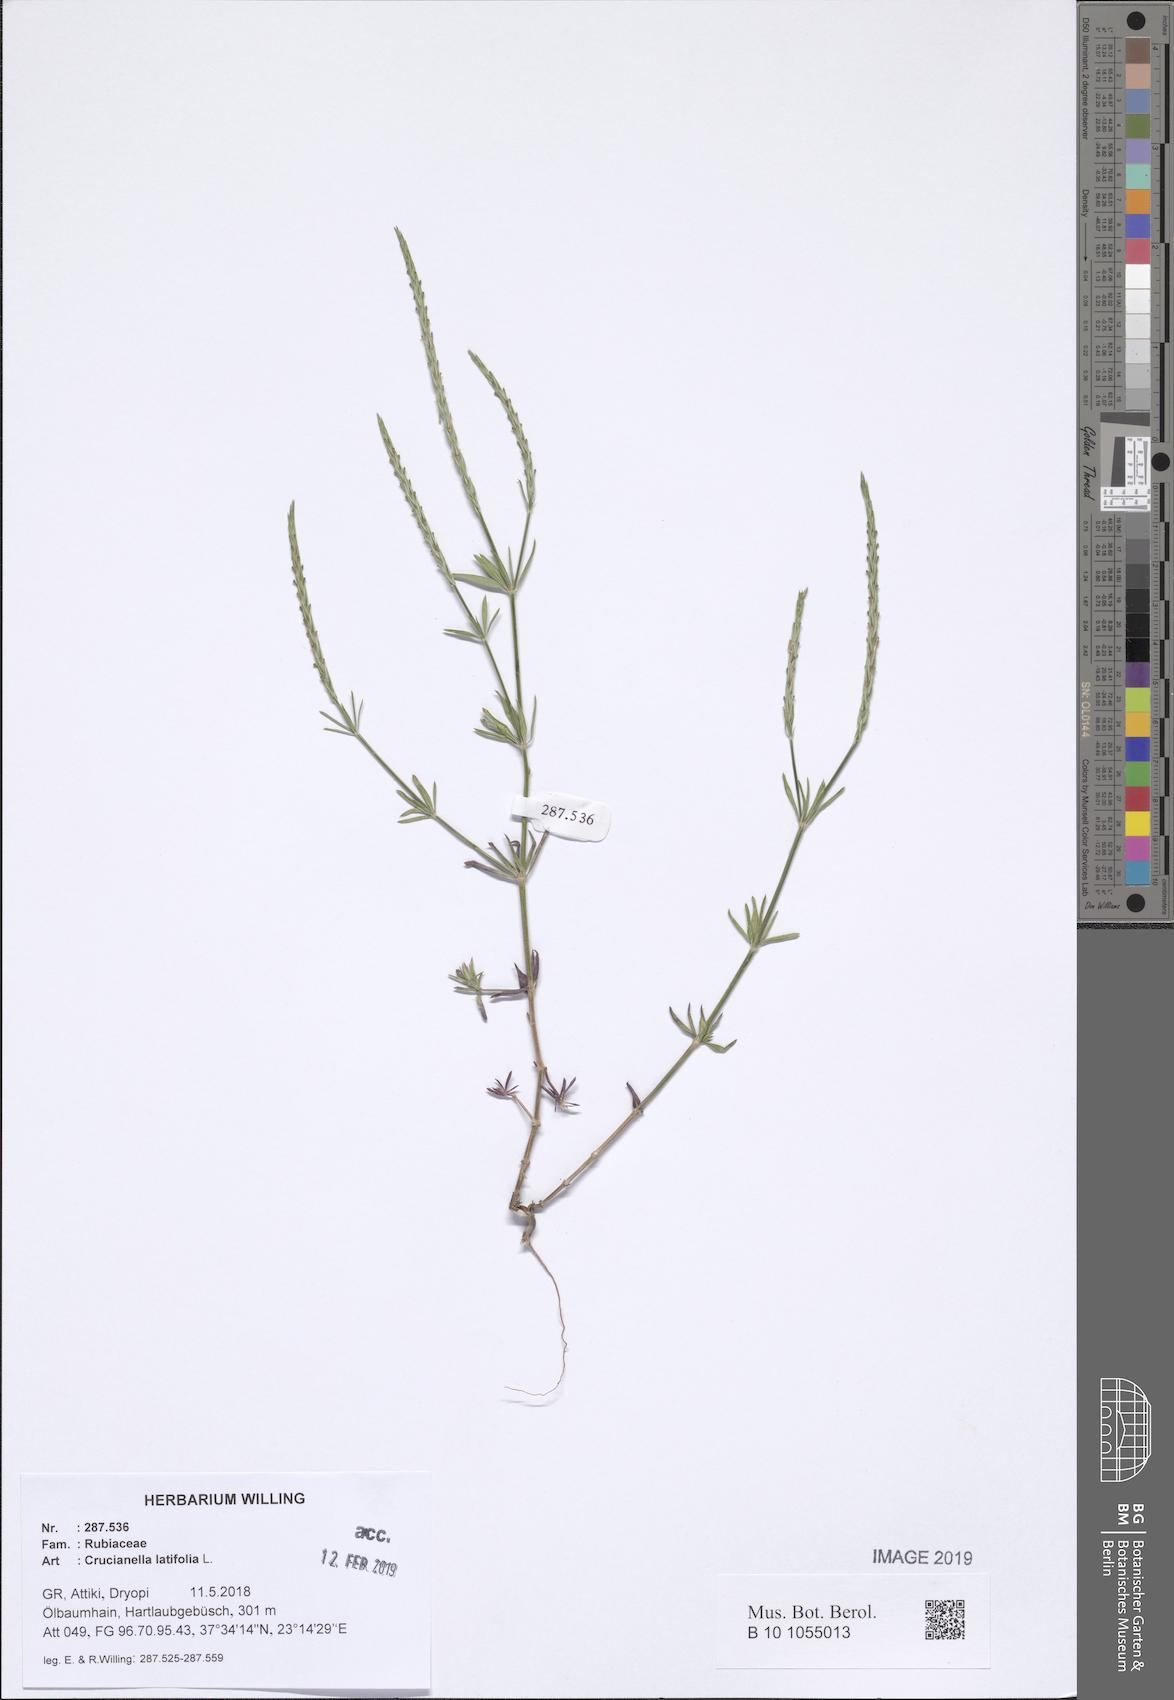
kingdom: Plantae
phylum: Tracheophyta
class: Magnoliopsida
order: Gentianales
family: Rubiaceae
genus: Crucianella
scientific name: Crucianella latifolia
